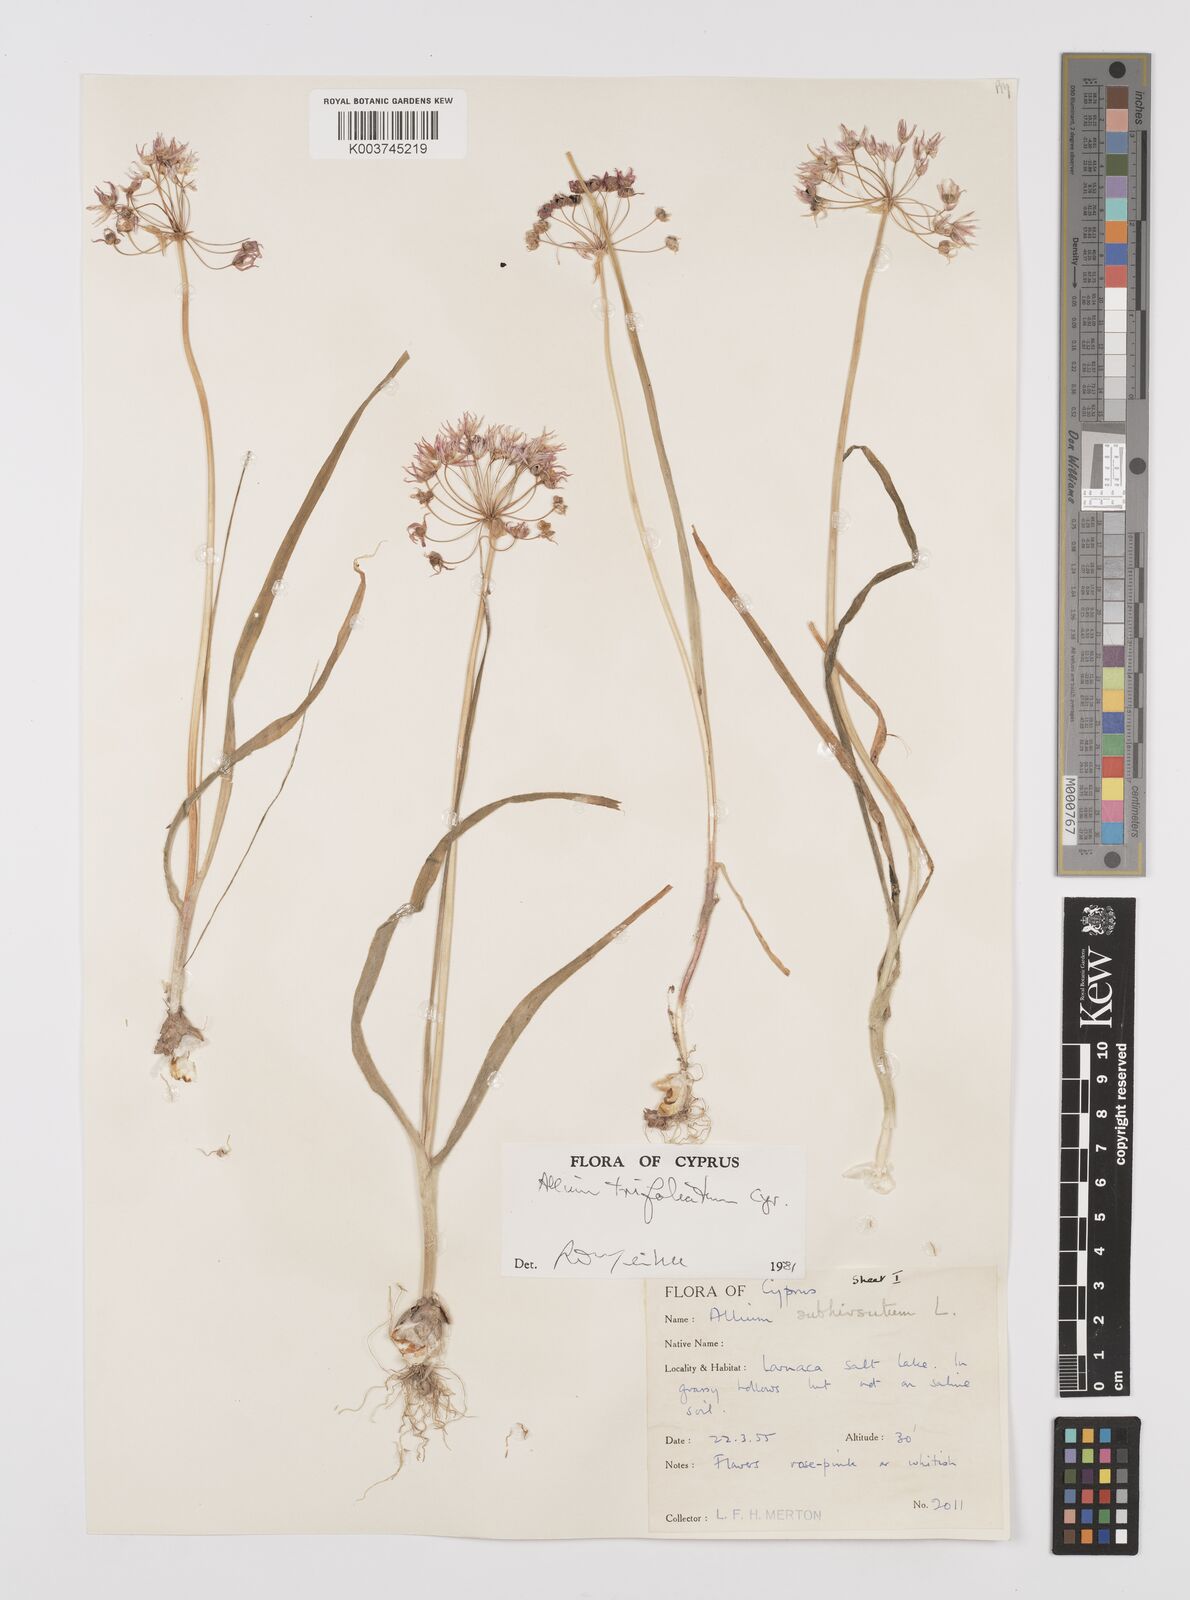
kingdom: Plantae
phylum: Tracheophyta
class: Liliopsida
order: Asparagales
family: Amaryllidaceae
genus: Allium
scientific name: Allium trifoliatum
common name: Pink garlic
